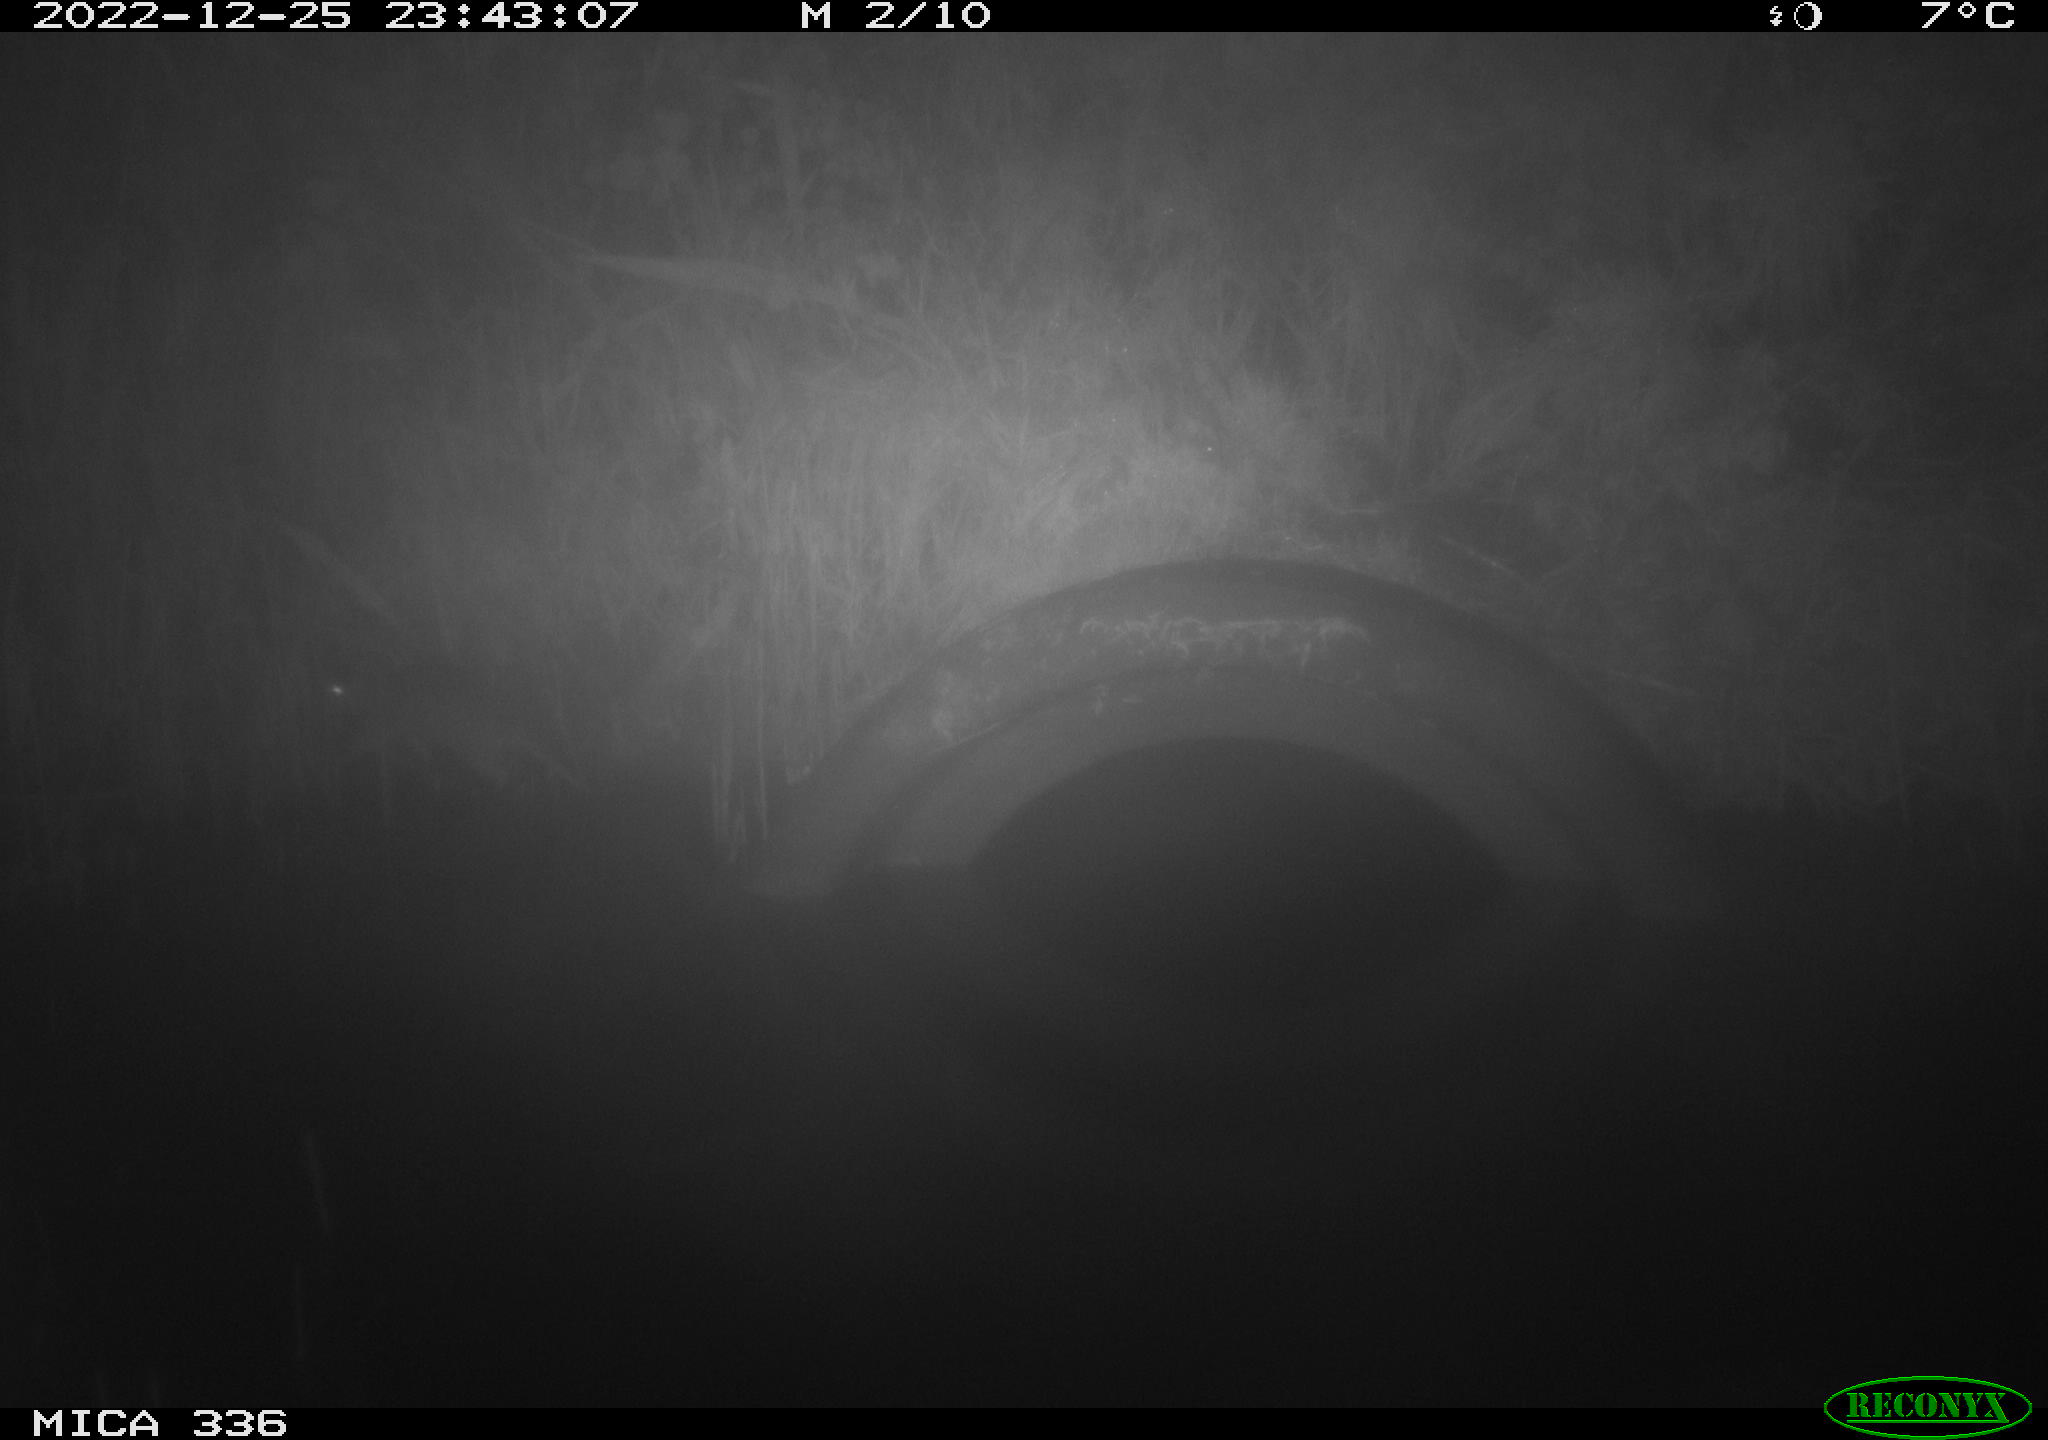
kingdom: Animalia
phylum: Chordata
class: Mammalia
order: Rodentia
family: Muridae
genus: Rattus
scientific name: Rattus norvegicus
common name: Brown rat
